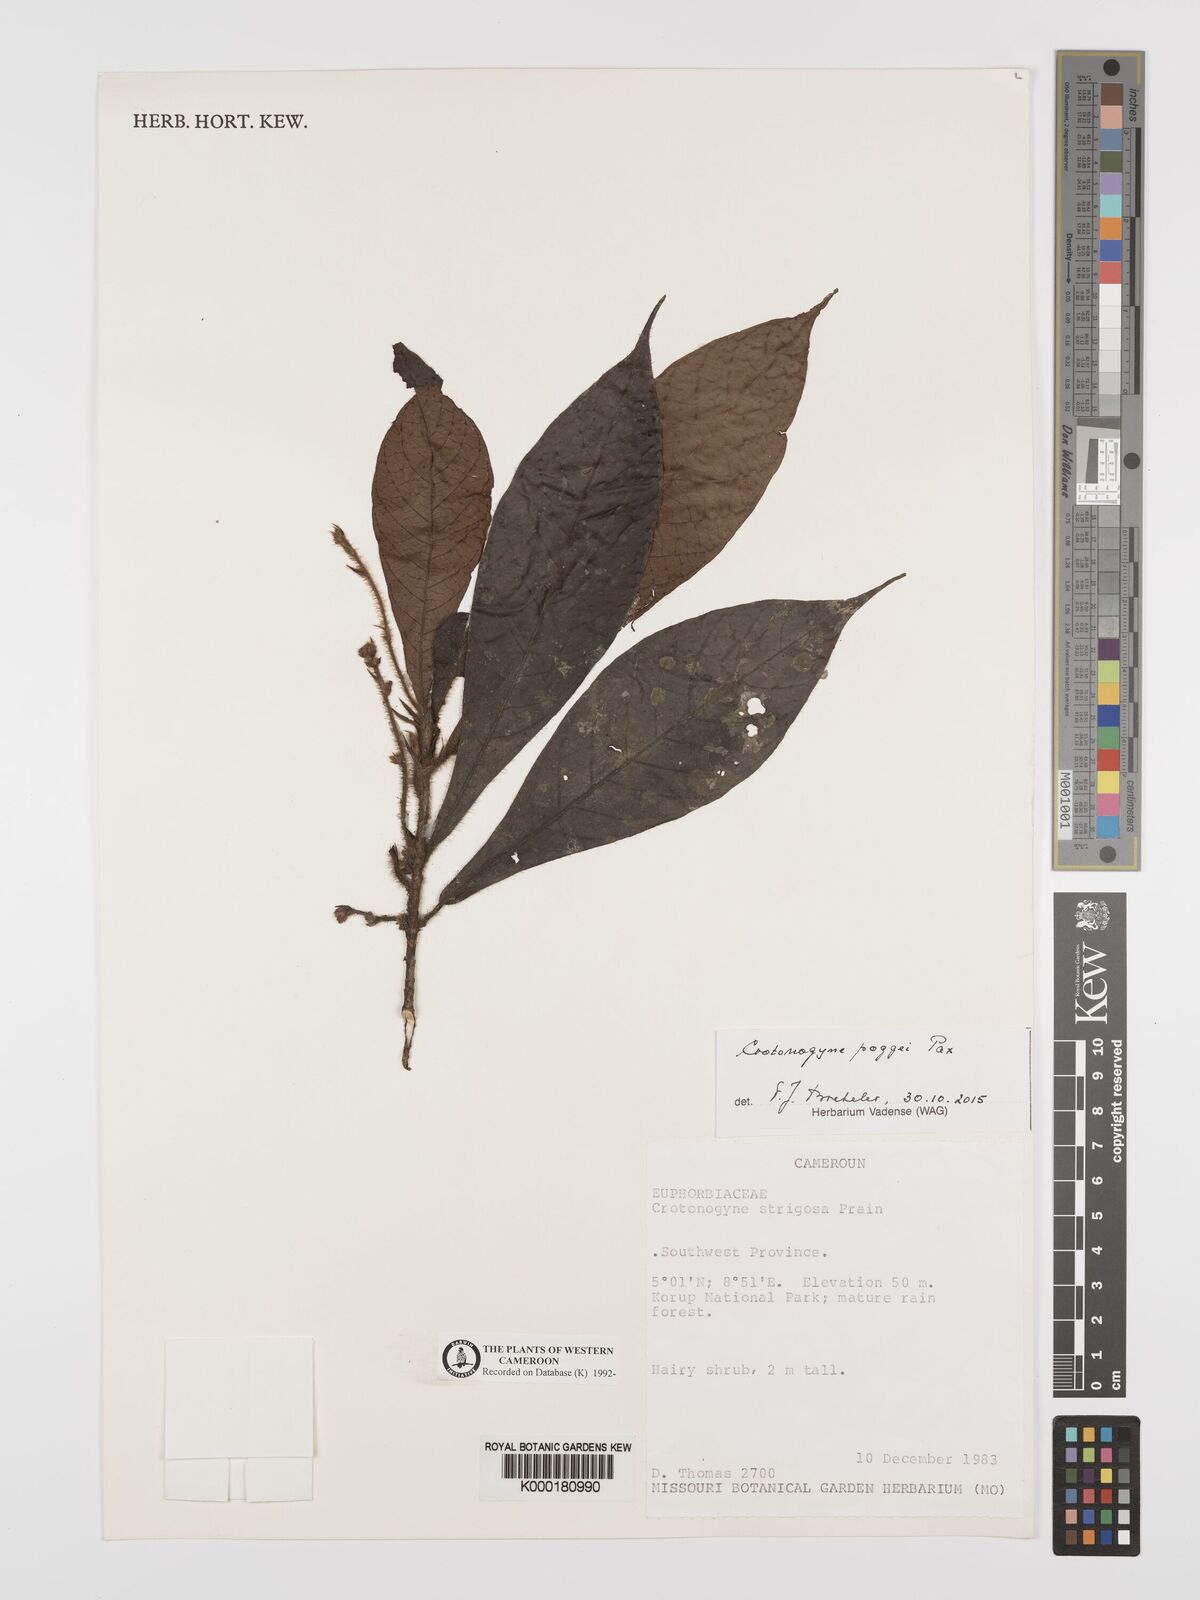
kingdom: Plantae
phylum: Tracheophyta
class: Magnoliopsida
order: Malpighiales
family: Euphorbiaceae
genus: Crotonogyne
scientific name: Crotonogyne poggei
